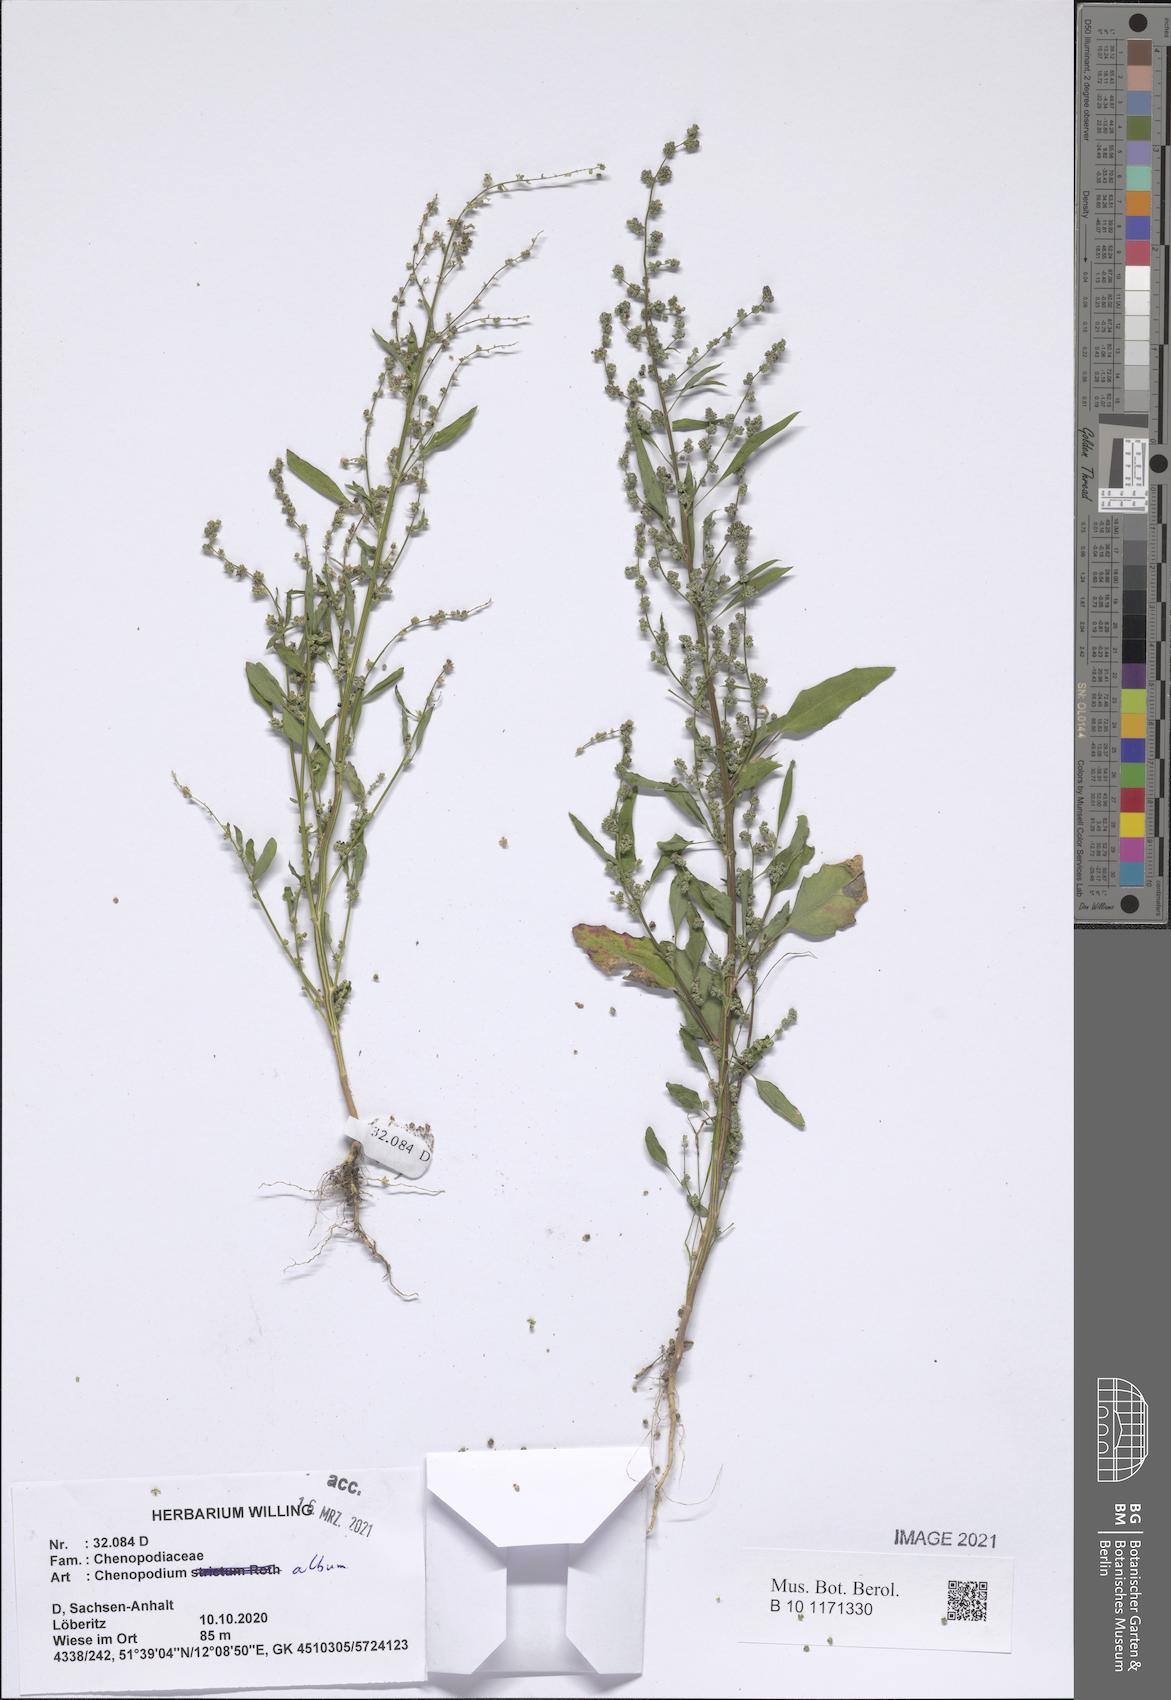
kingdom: Plantae
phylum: Tracheophyta
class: Magnoliopsida
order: Caryophyllales
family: Amaranthaceae
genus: Chenopodium
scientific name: Chenopodium album
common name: Fat-hen
